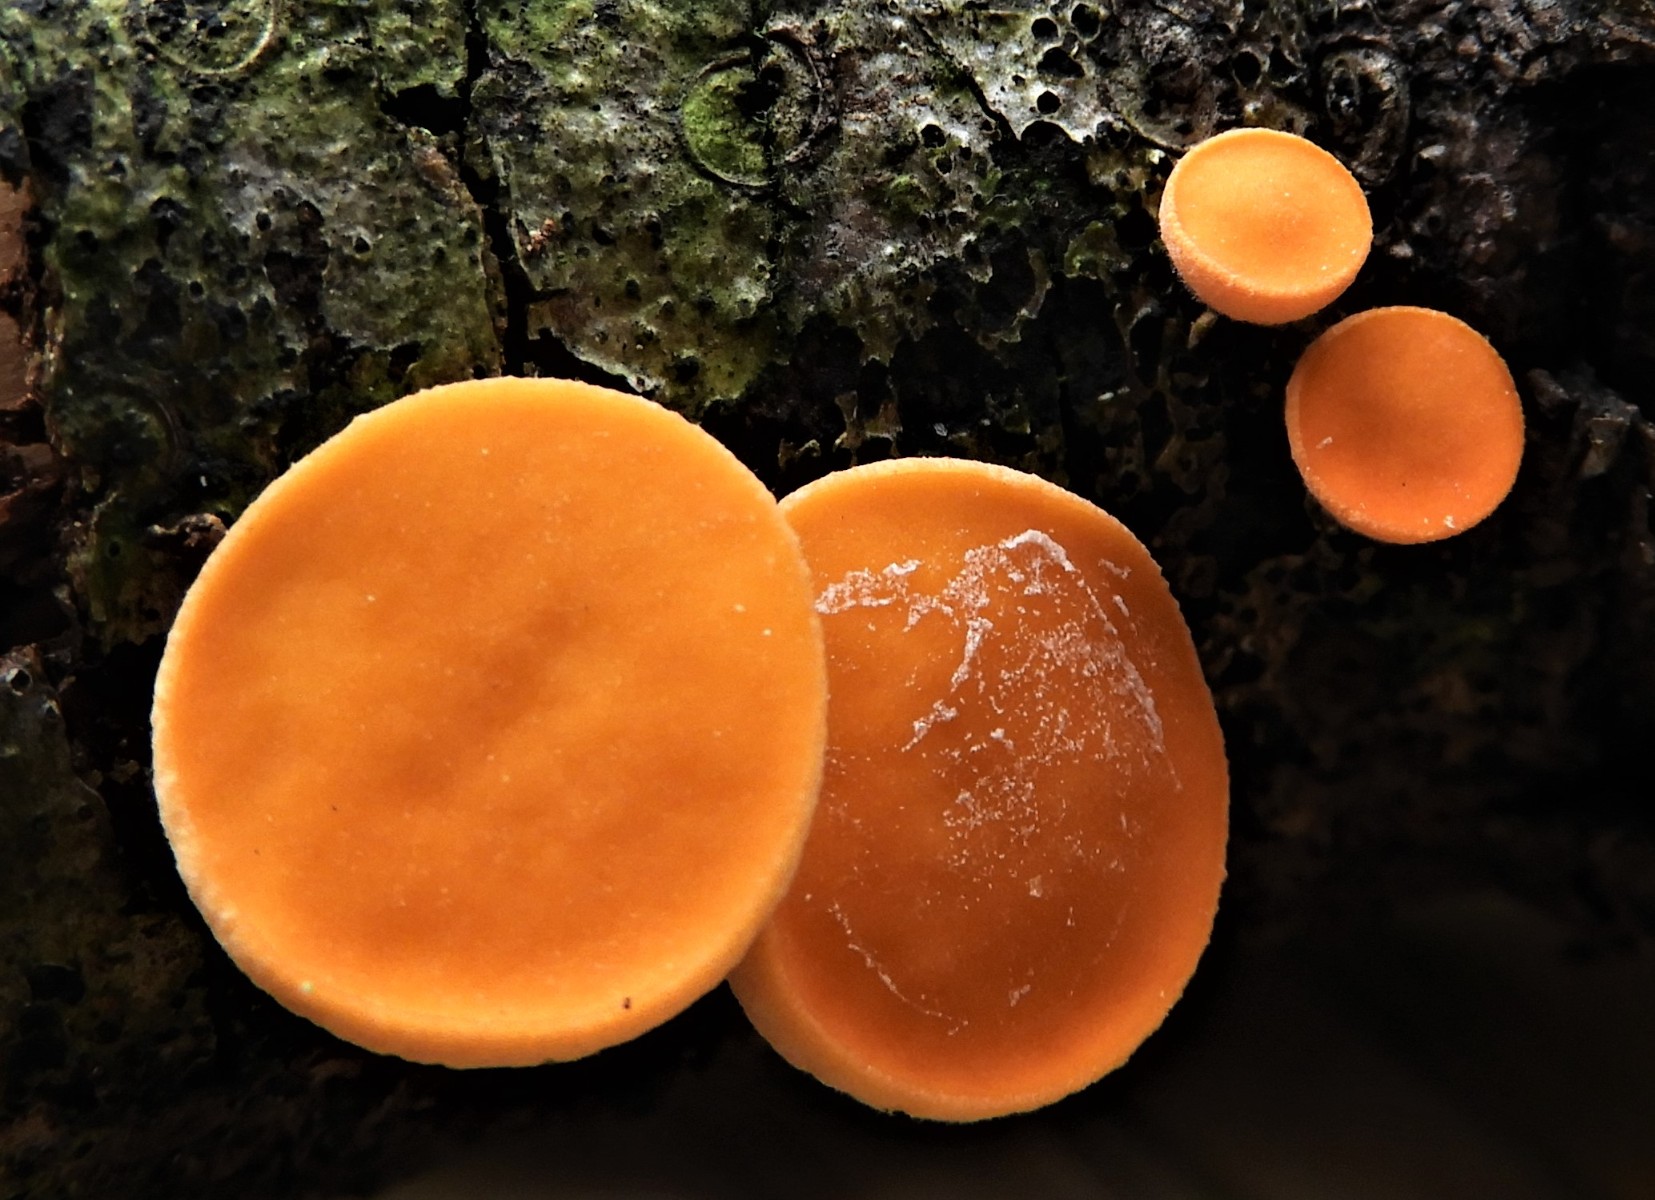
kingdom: Fungi
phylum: Ascomycota
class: Pezizomycetes
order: Pezizales
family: Sarcoscyphaceae
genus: Pithya
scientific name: Pithya vulgaris
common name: stor dukatbæger
